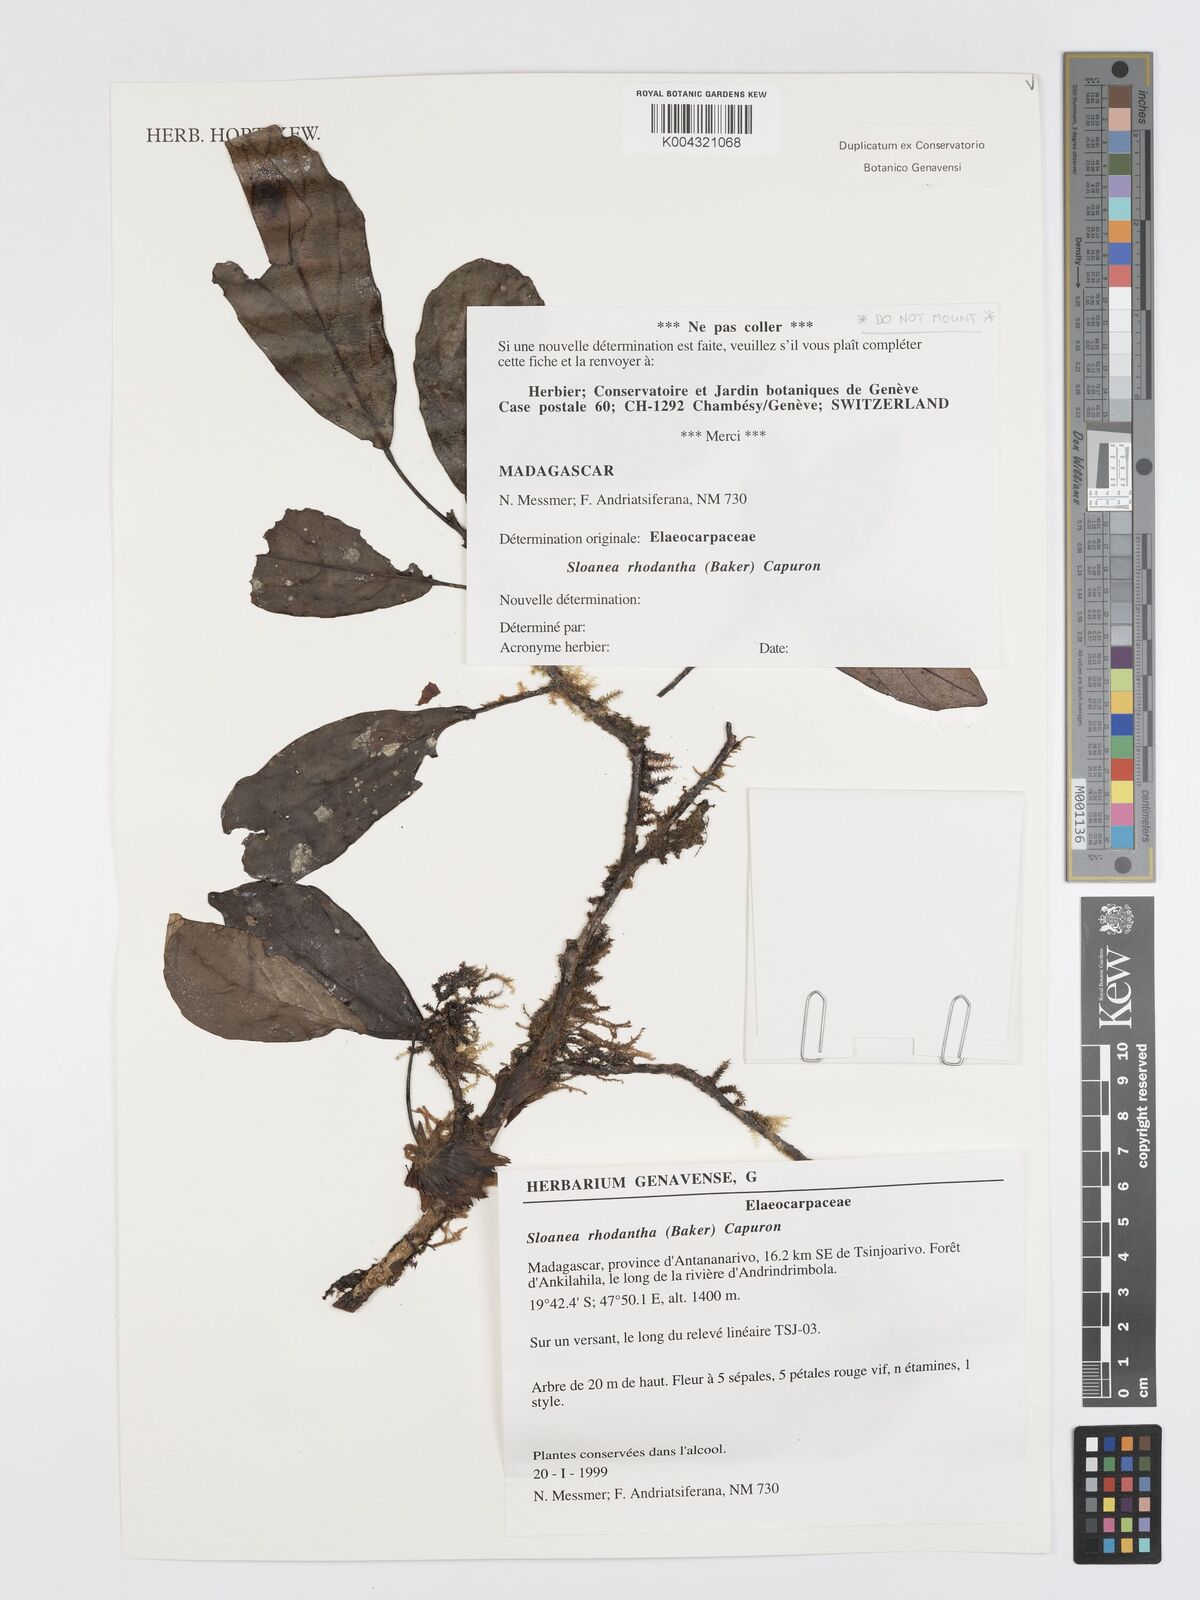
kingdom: Plantae
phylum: Tracheophyta
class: Magnoliopsida
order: Oxalidales
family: Elaeocarpaceae
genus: Sloanea
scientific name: Sloanea rhodantha
